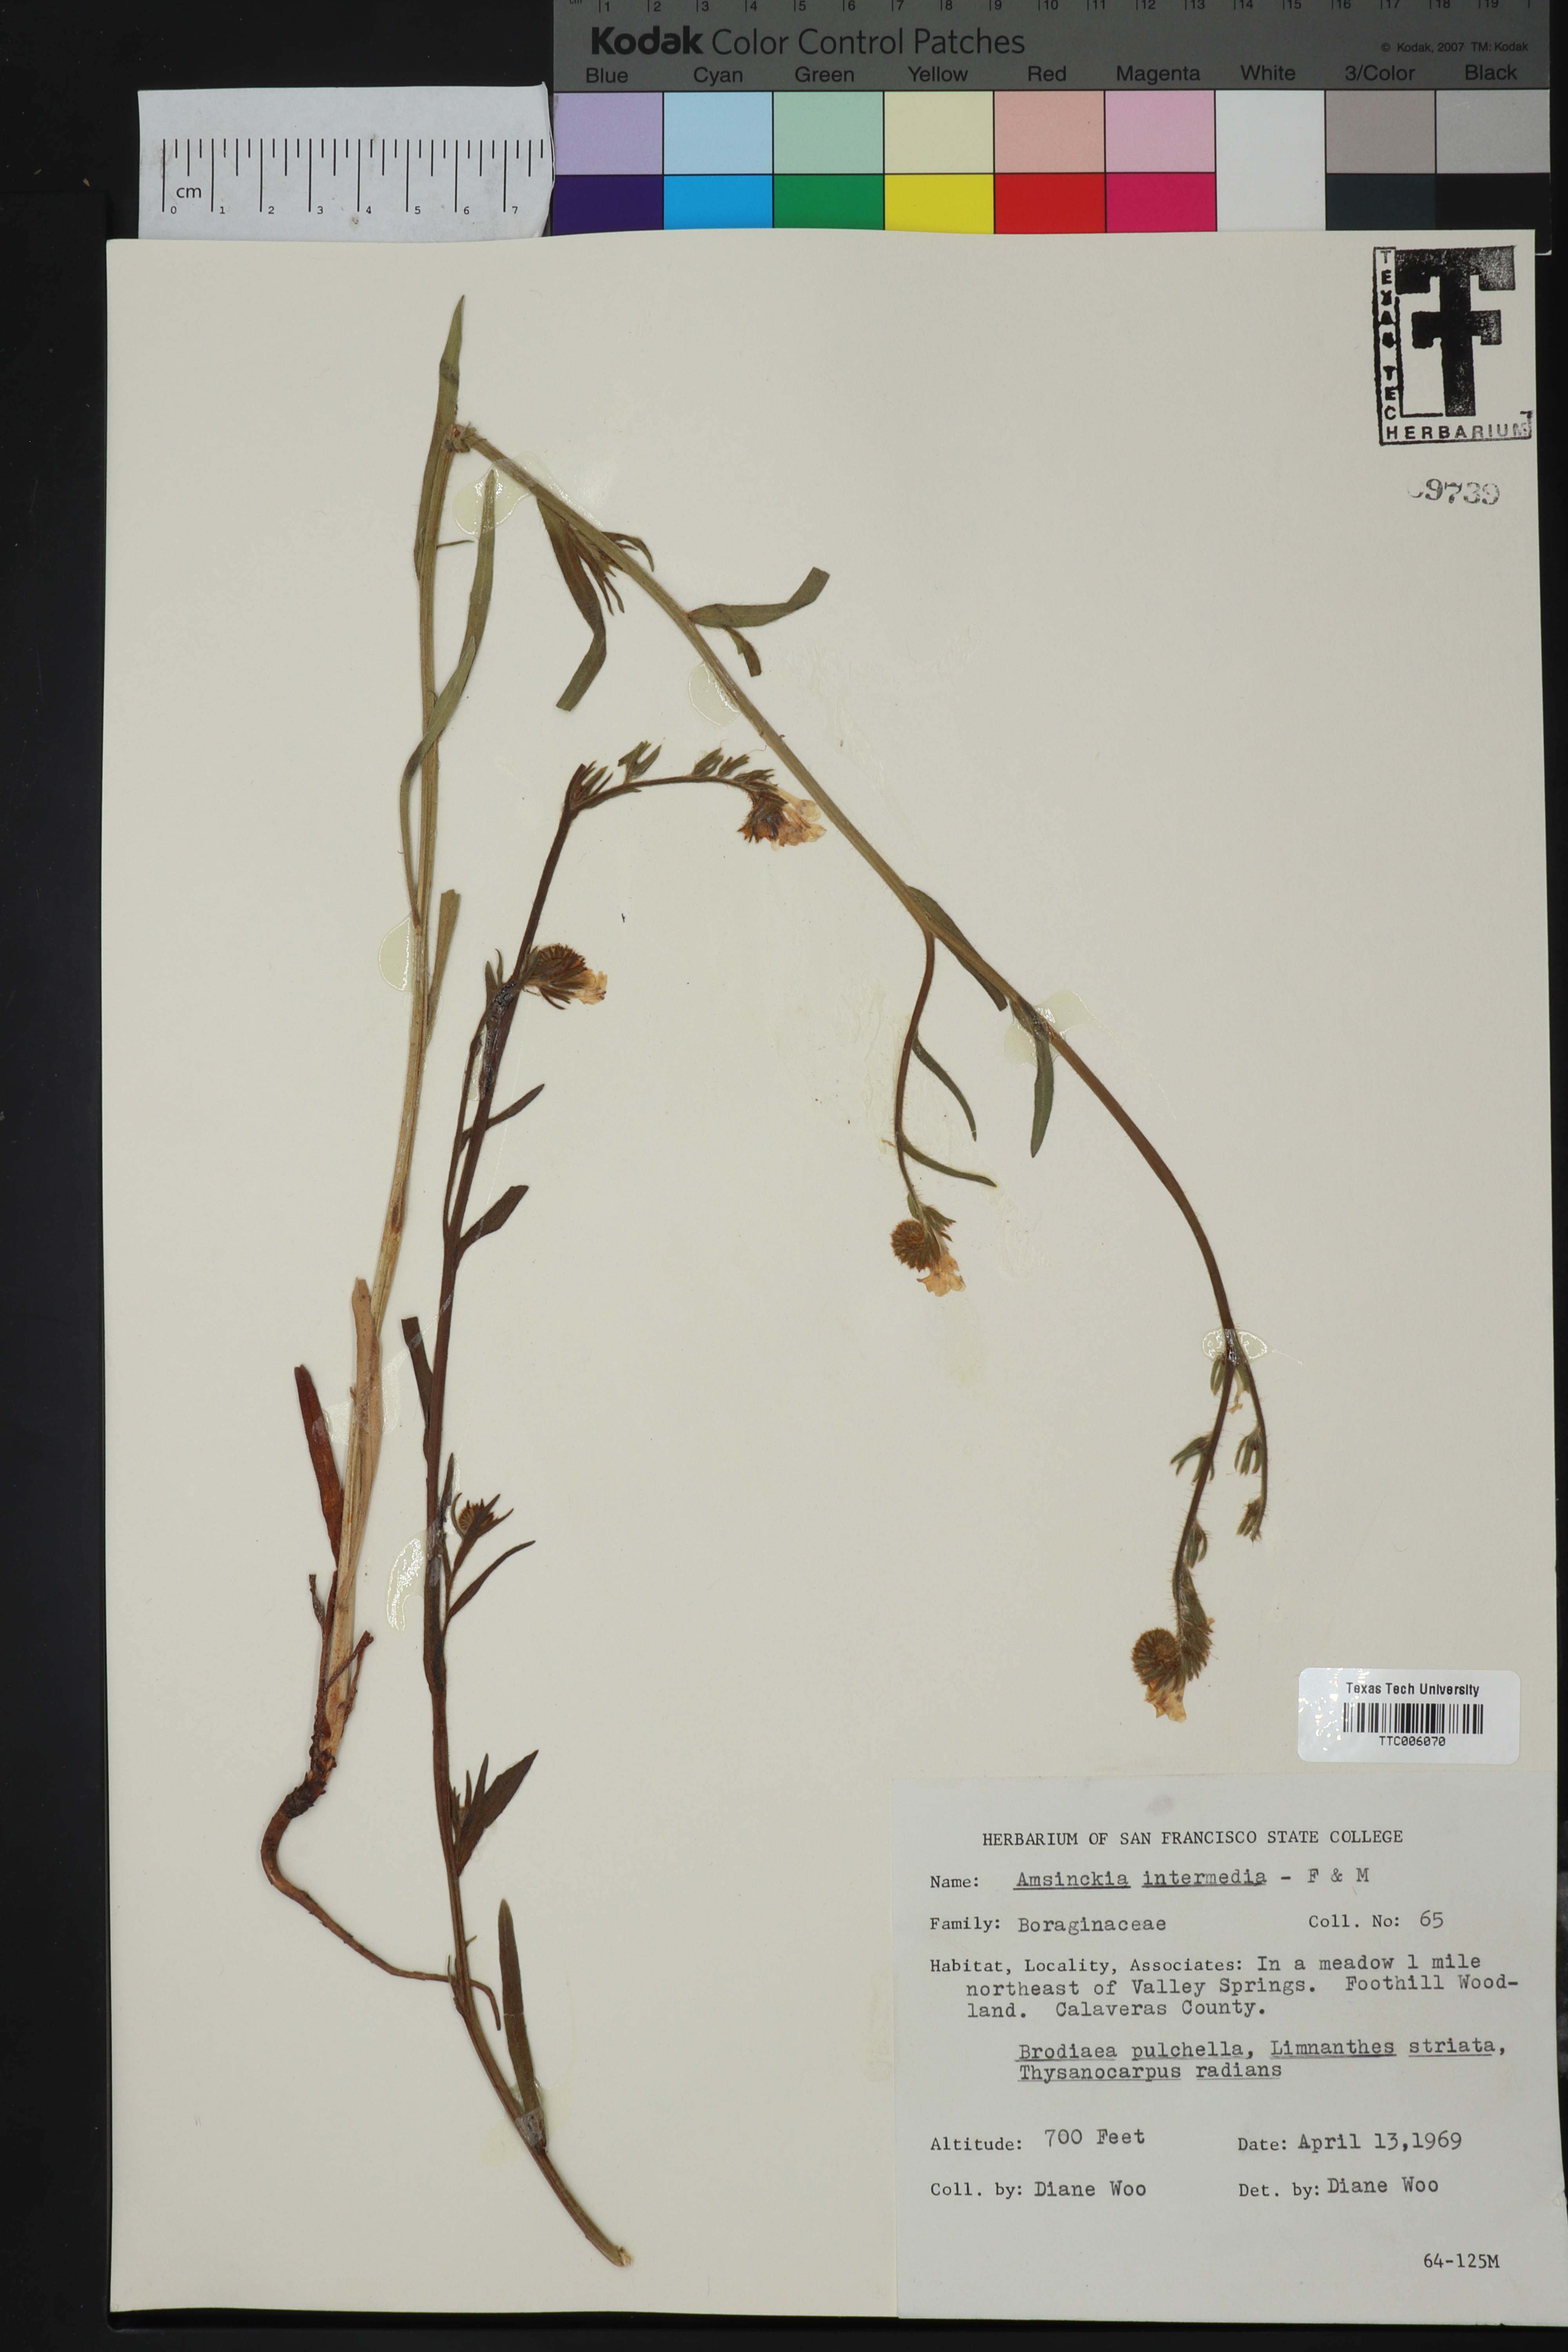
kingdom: Plantae
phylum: Tracheophyta
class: Magnoliopsida
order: Boraginales
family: Boraginaceae
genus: Amsinckia
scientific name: Amsinckia menziesii
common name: Menzies' fiddleneck
